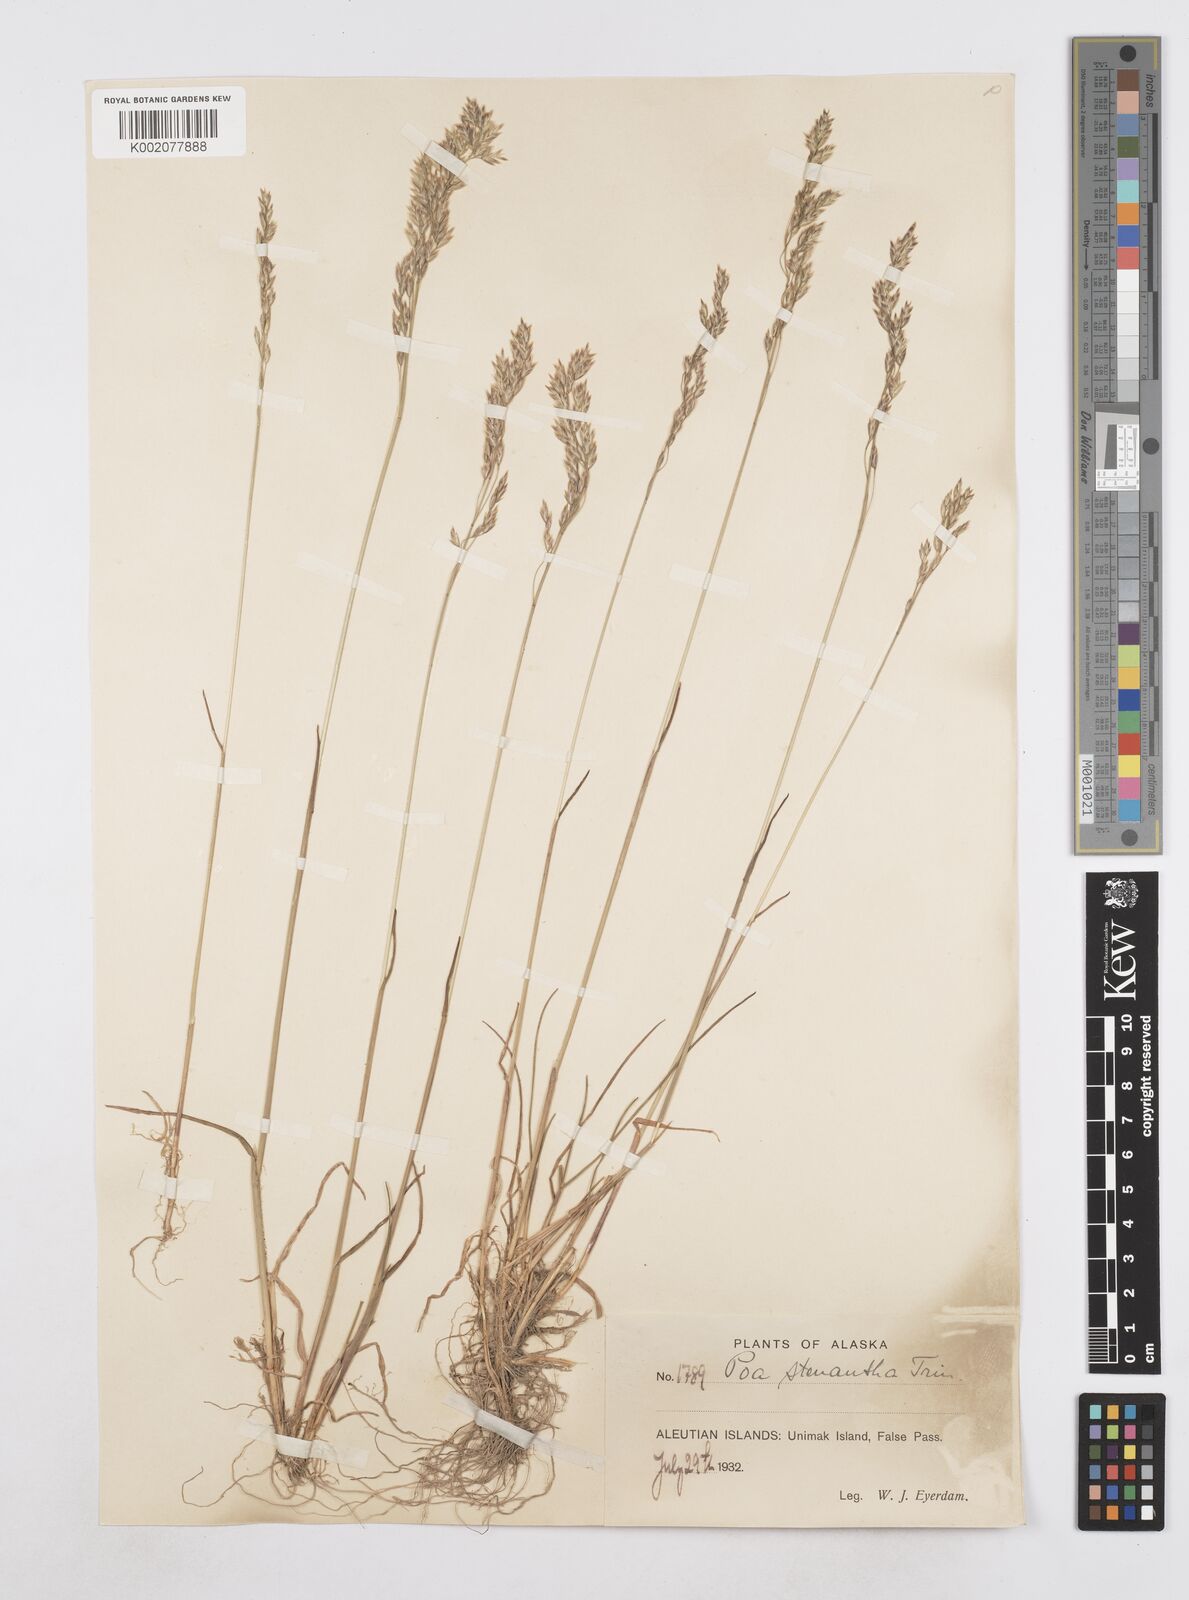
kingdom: Plantae
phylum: Tracheophyta
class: Liliopsida
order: Poales
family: Poaceae
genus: Poa
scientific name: Poa stenantha
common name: Narrow-flowered bluegrass
